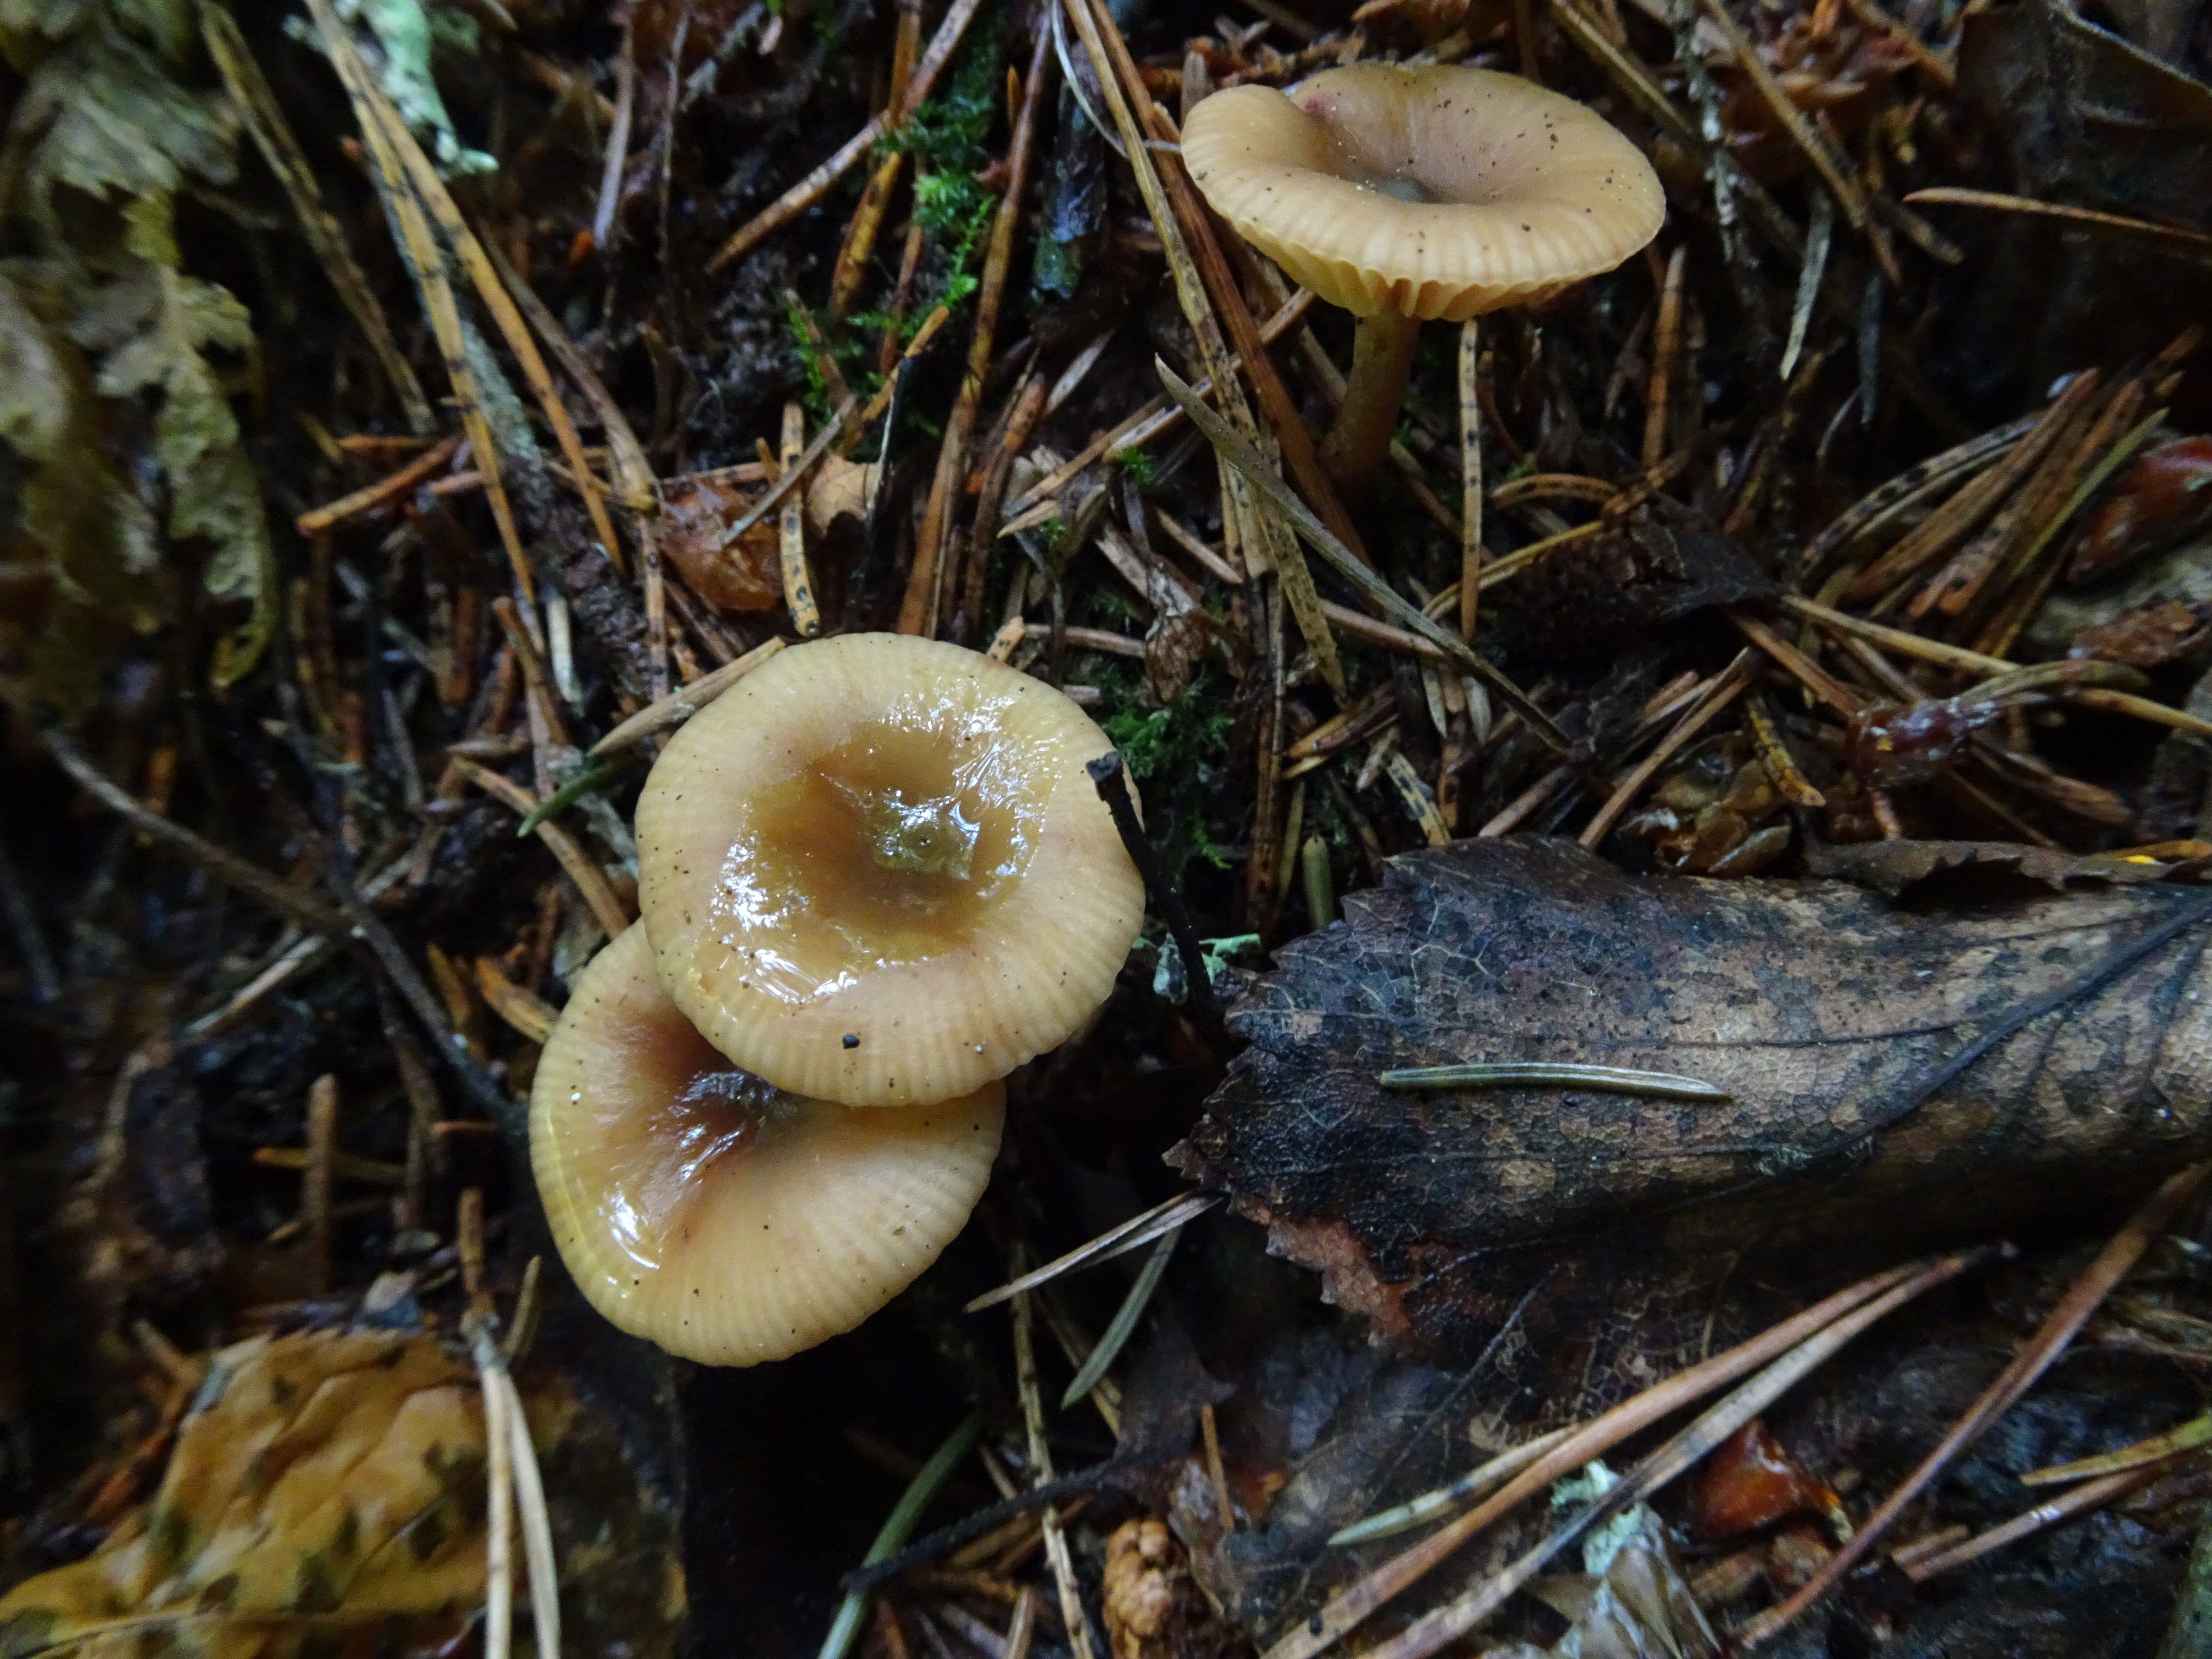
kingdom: Fungi
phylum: Basidiomycota
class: Agaricomycetes
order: Russulales
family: Russulaceae
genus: Lactarius
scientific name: Lactarius
